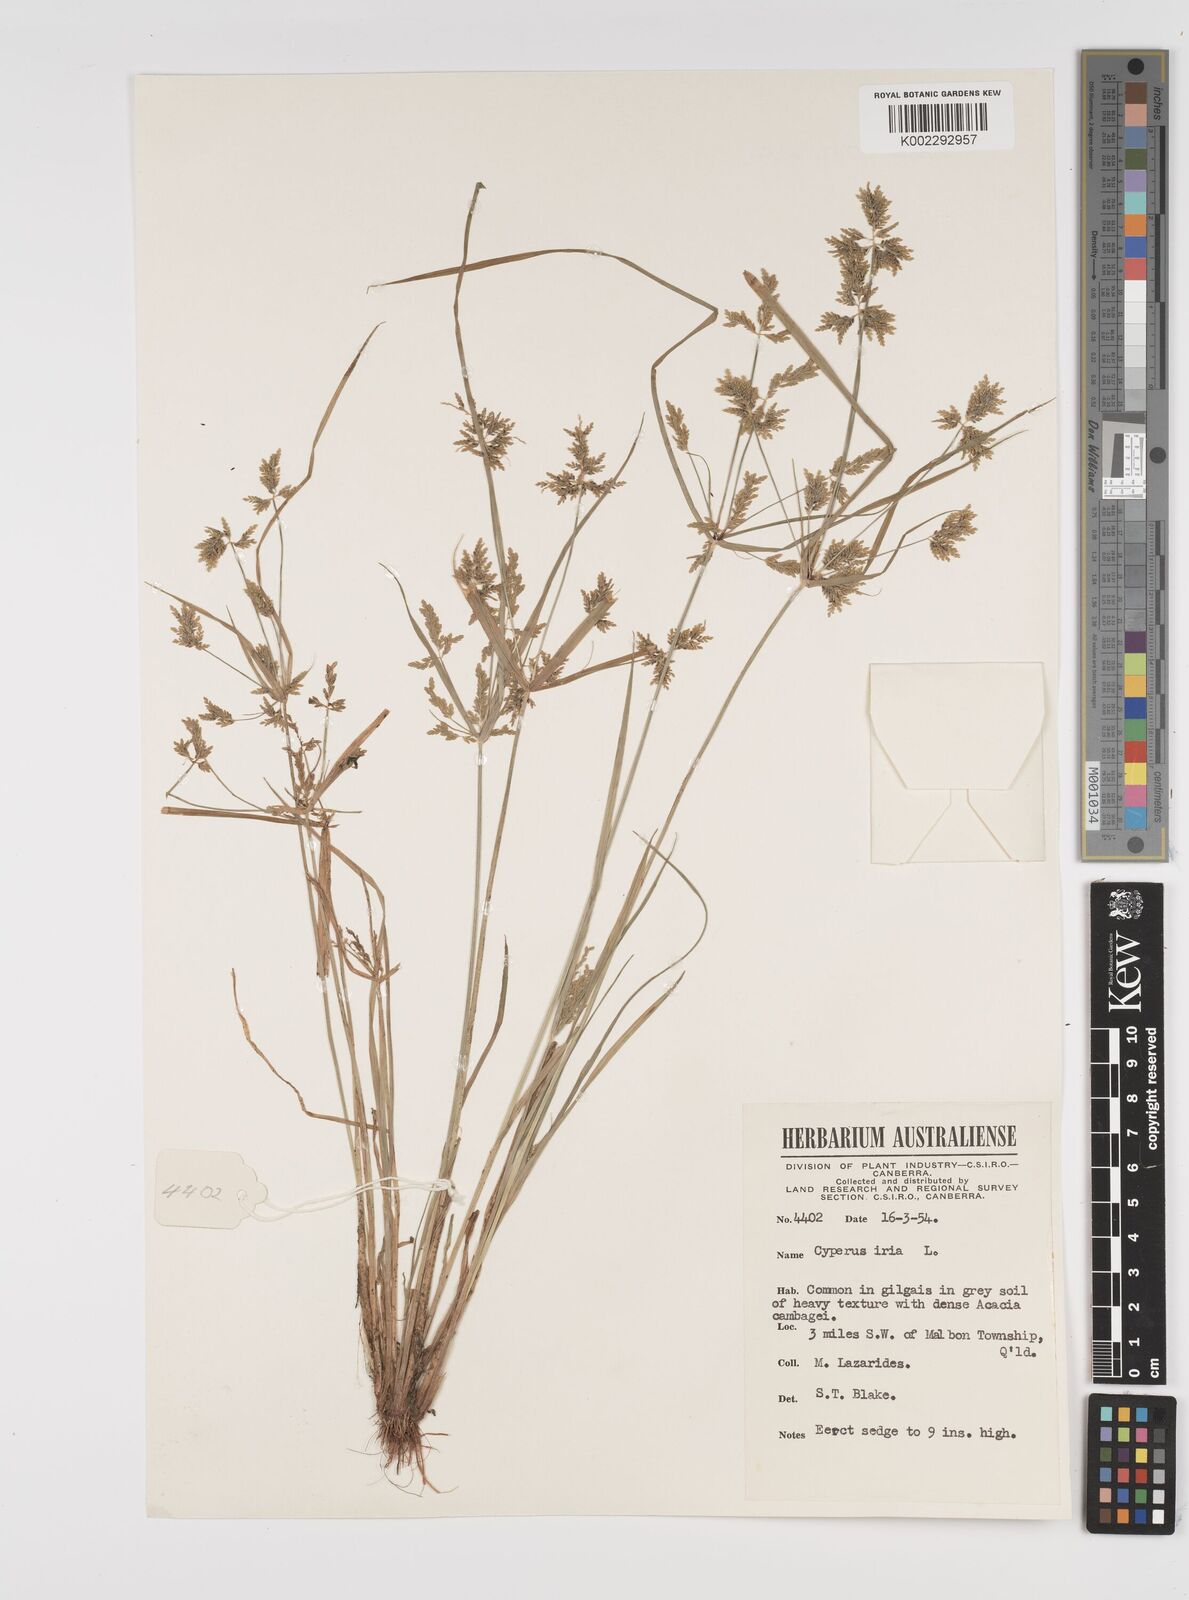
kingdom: Plantae
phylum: Tracheophyta
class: Liliopsida
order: Poales
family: Cyperaceae
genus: Cyperus
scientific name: Cyperus iria
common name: Ricefield flatsedge
